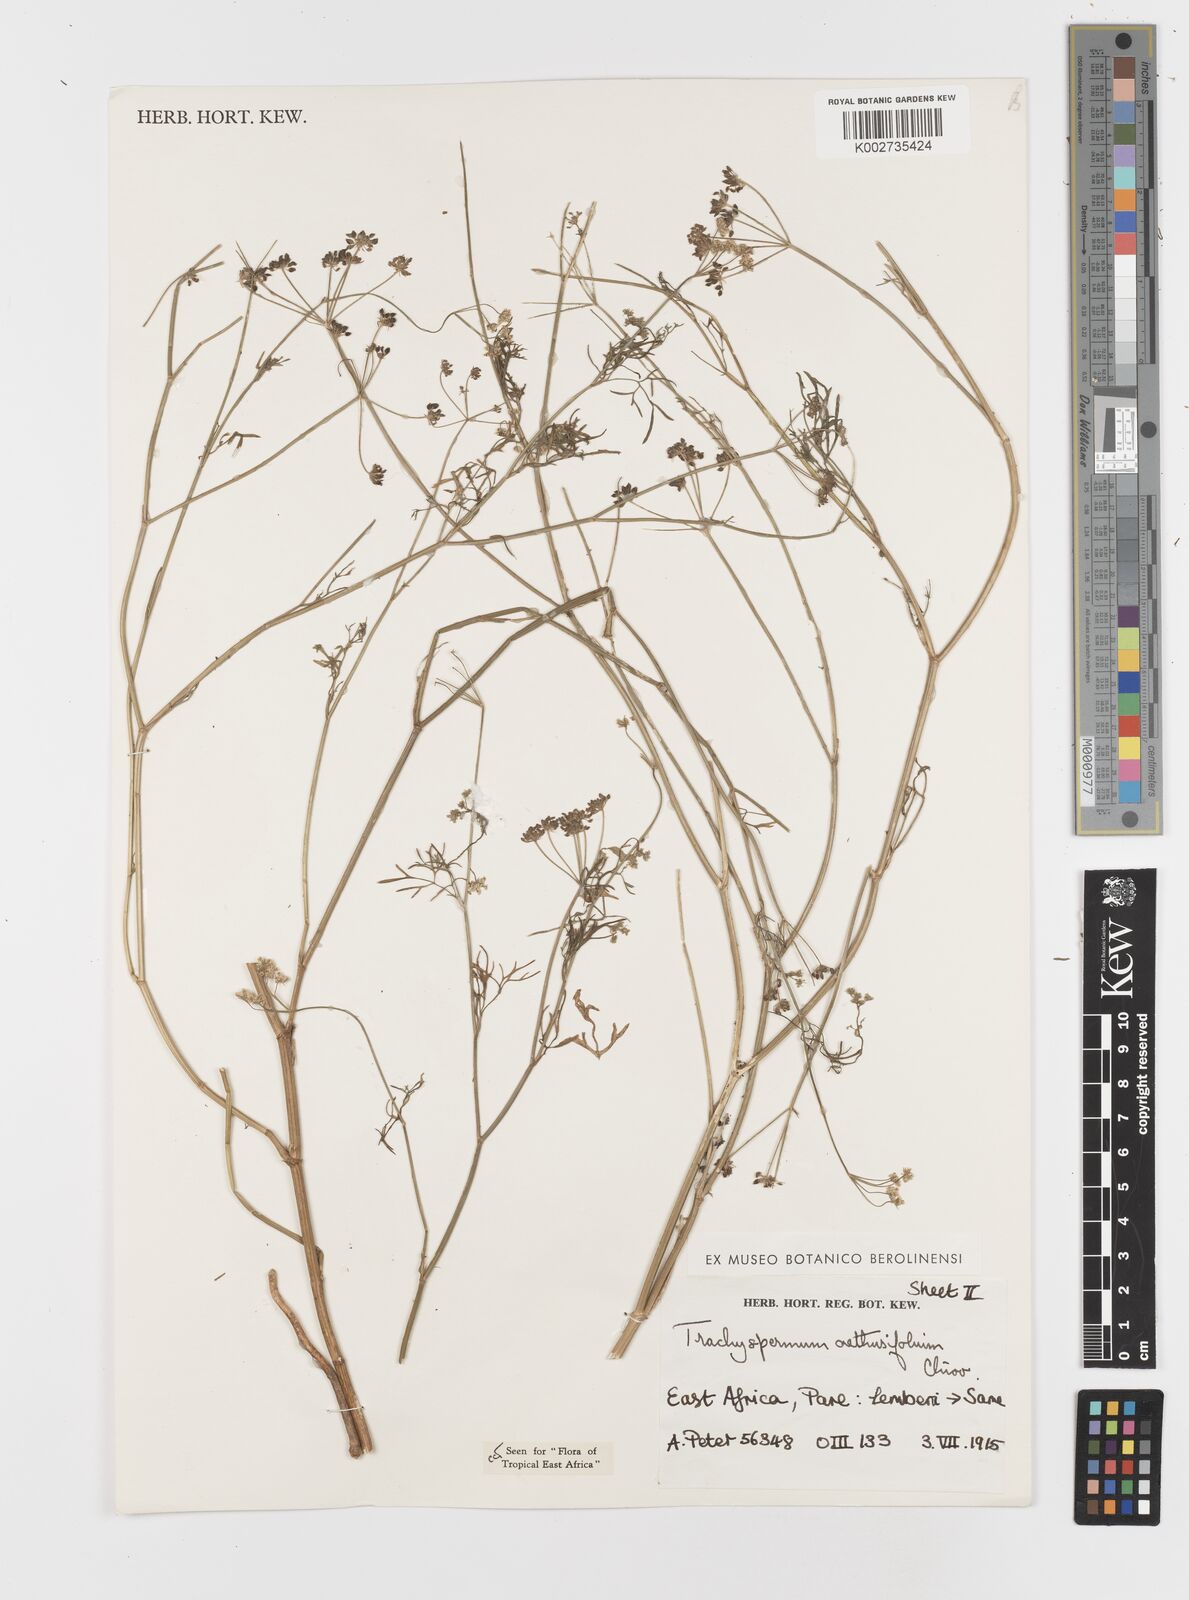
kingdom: Plantae
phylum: Tracheophyta
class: Magnoliopsida
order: Apiales
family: Apiaceae
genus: Trachyspermum
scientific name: Trachyspermum pimpinelloides
